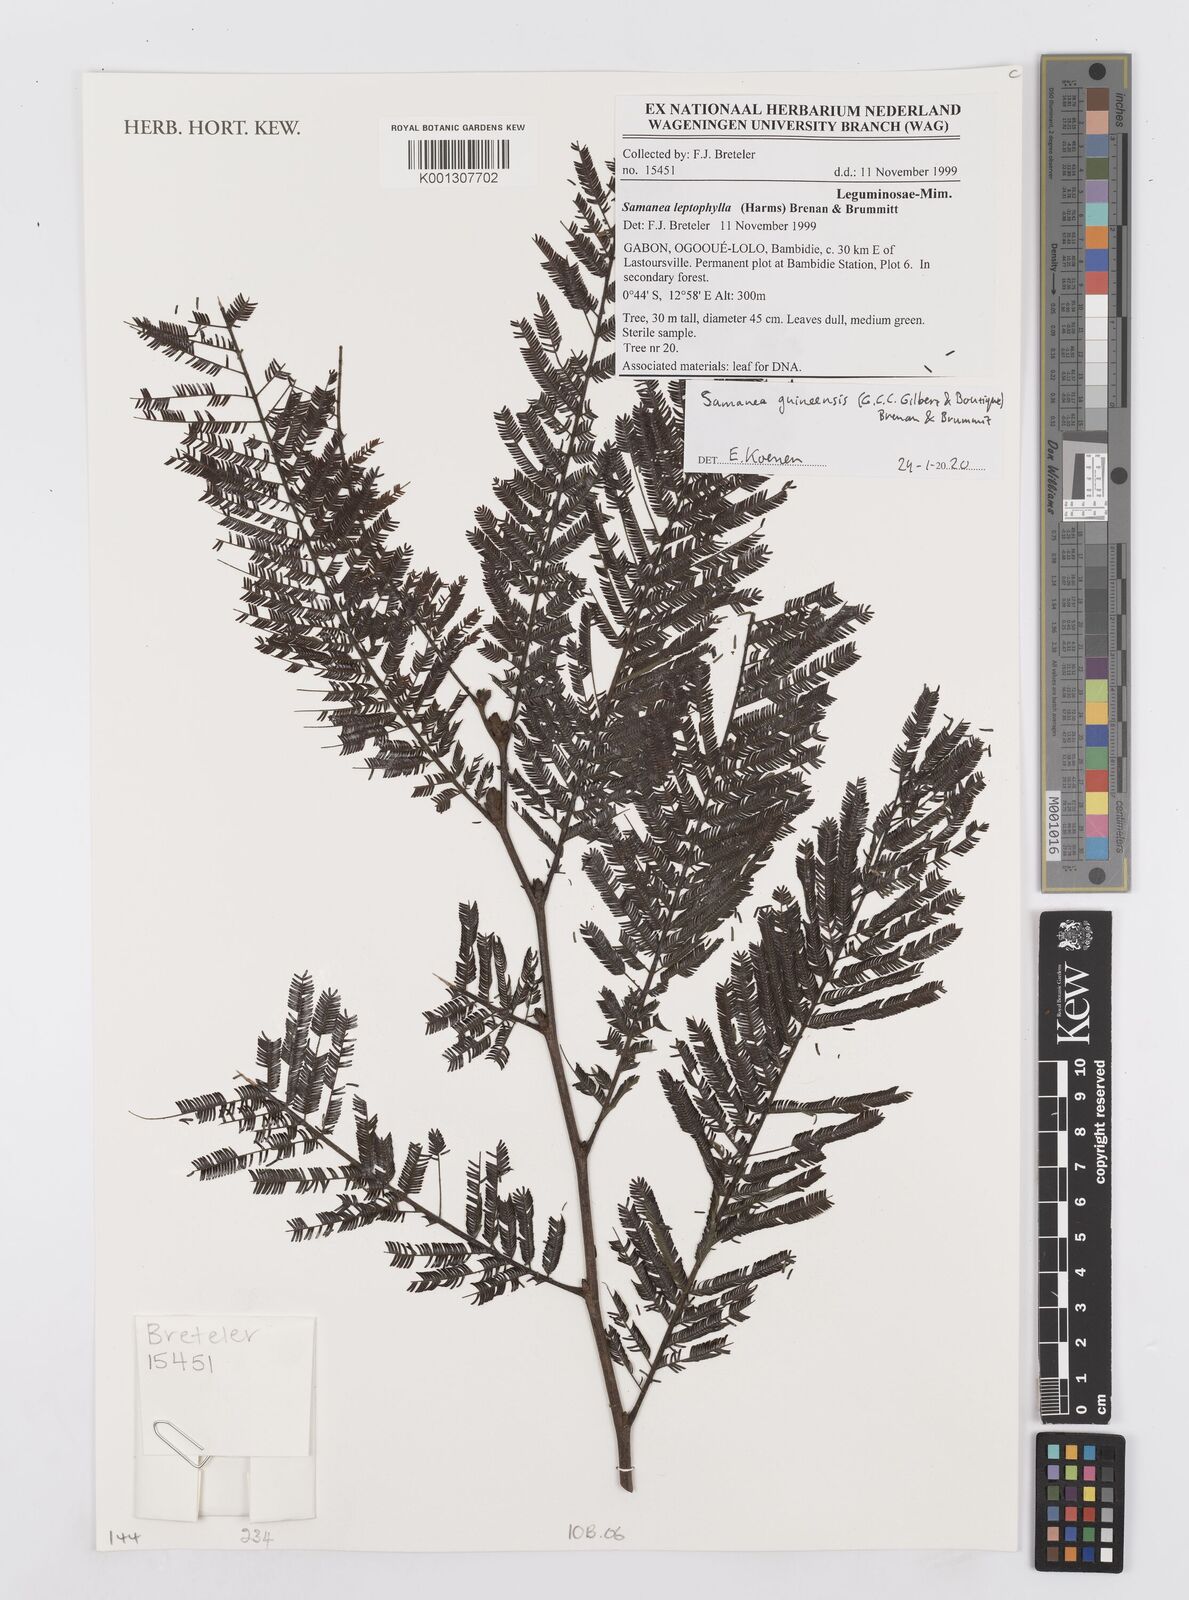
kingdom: Plantae
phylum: Tracheophyta
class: Magnoliopsida
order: Fabales
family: Fabaceae
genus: Samanea
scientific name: Samanea leptophylla
